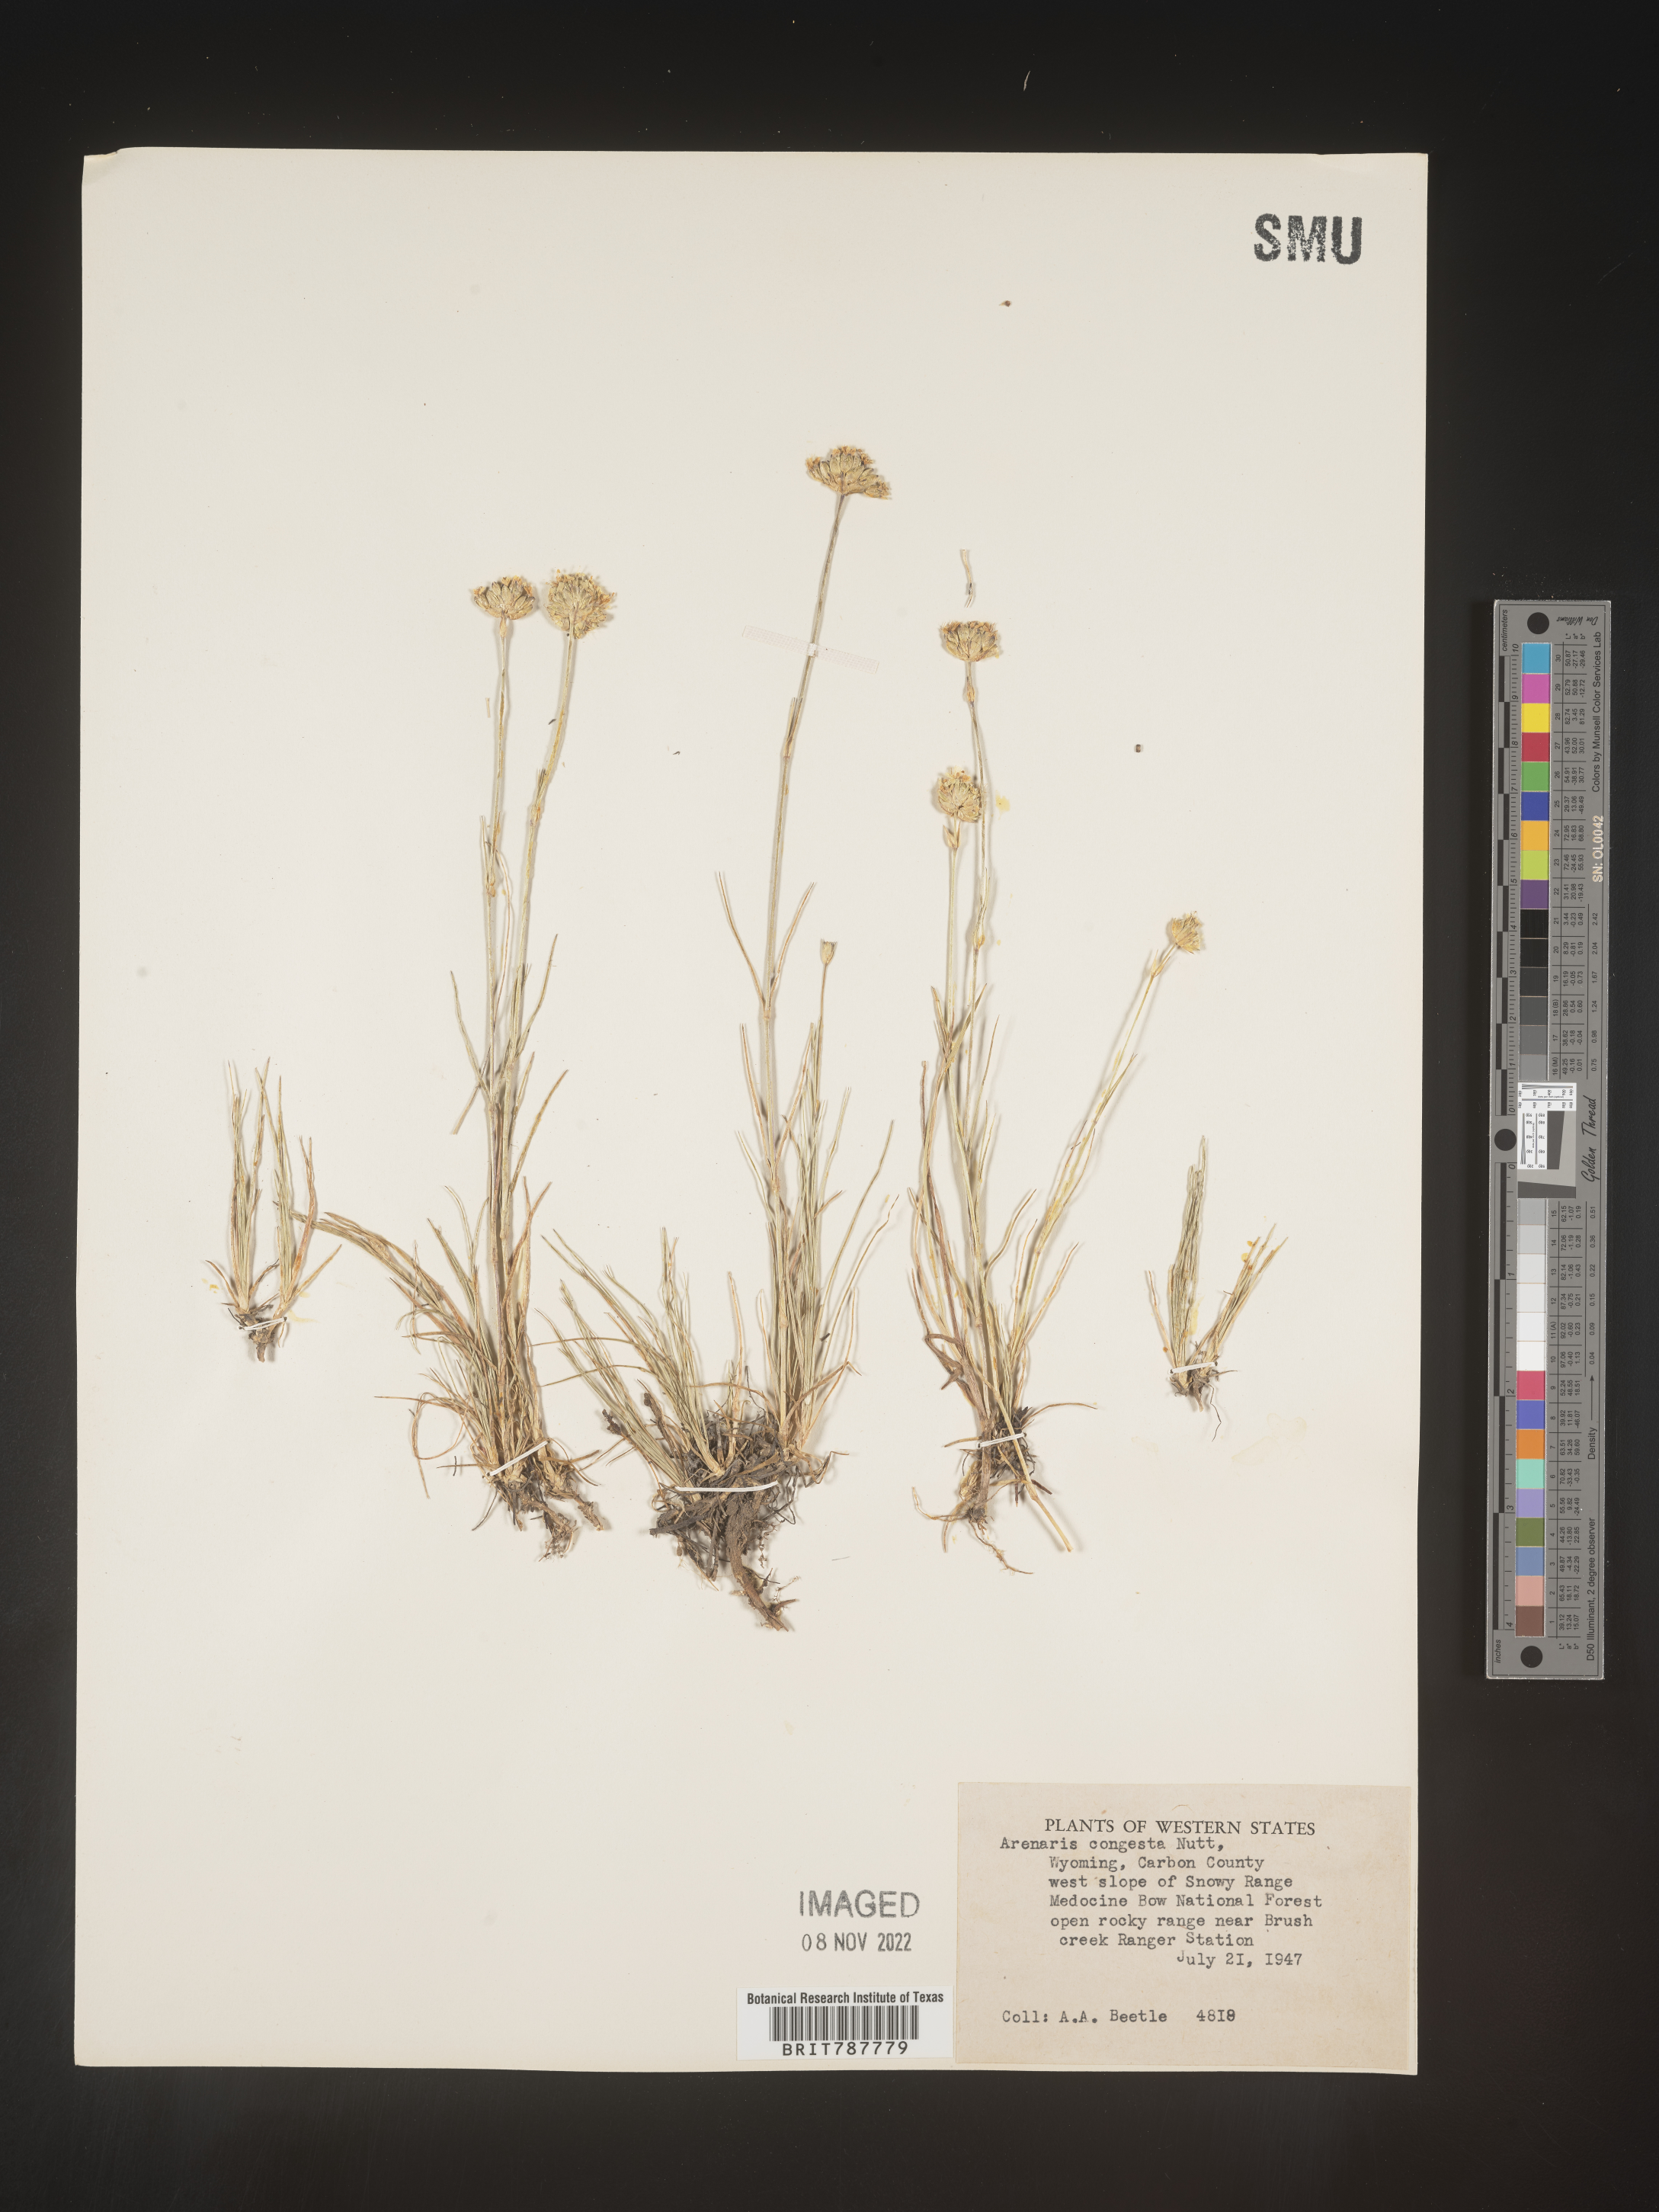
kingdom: Plantae
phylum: Tracheophyta
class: Magnoliopsida
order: Caryophyllales
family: Caryophyllaceae
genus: Eremogone
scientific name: Eremogone congesta
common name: Ballhead sandwort
